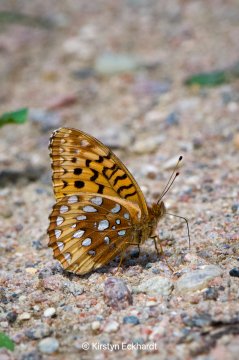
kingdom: Animalia
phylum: Arthropoda
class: Insecta
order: Lepidoptera
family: Nymphalidae
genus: Speyeria
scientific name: Speyeria cybele
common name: Great Spangled Fritillary
